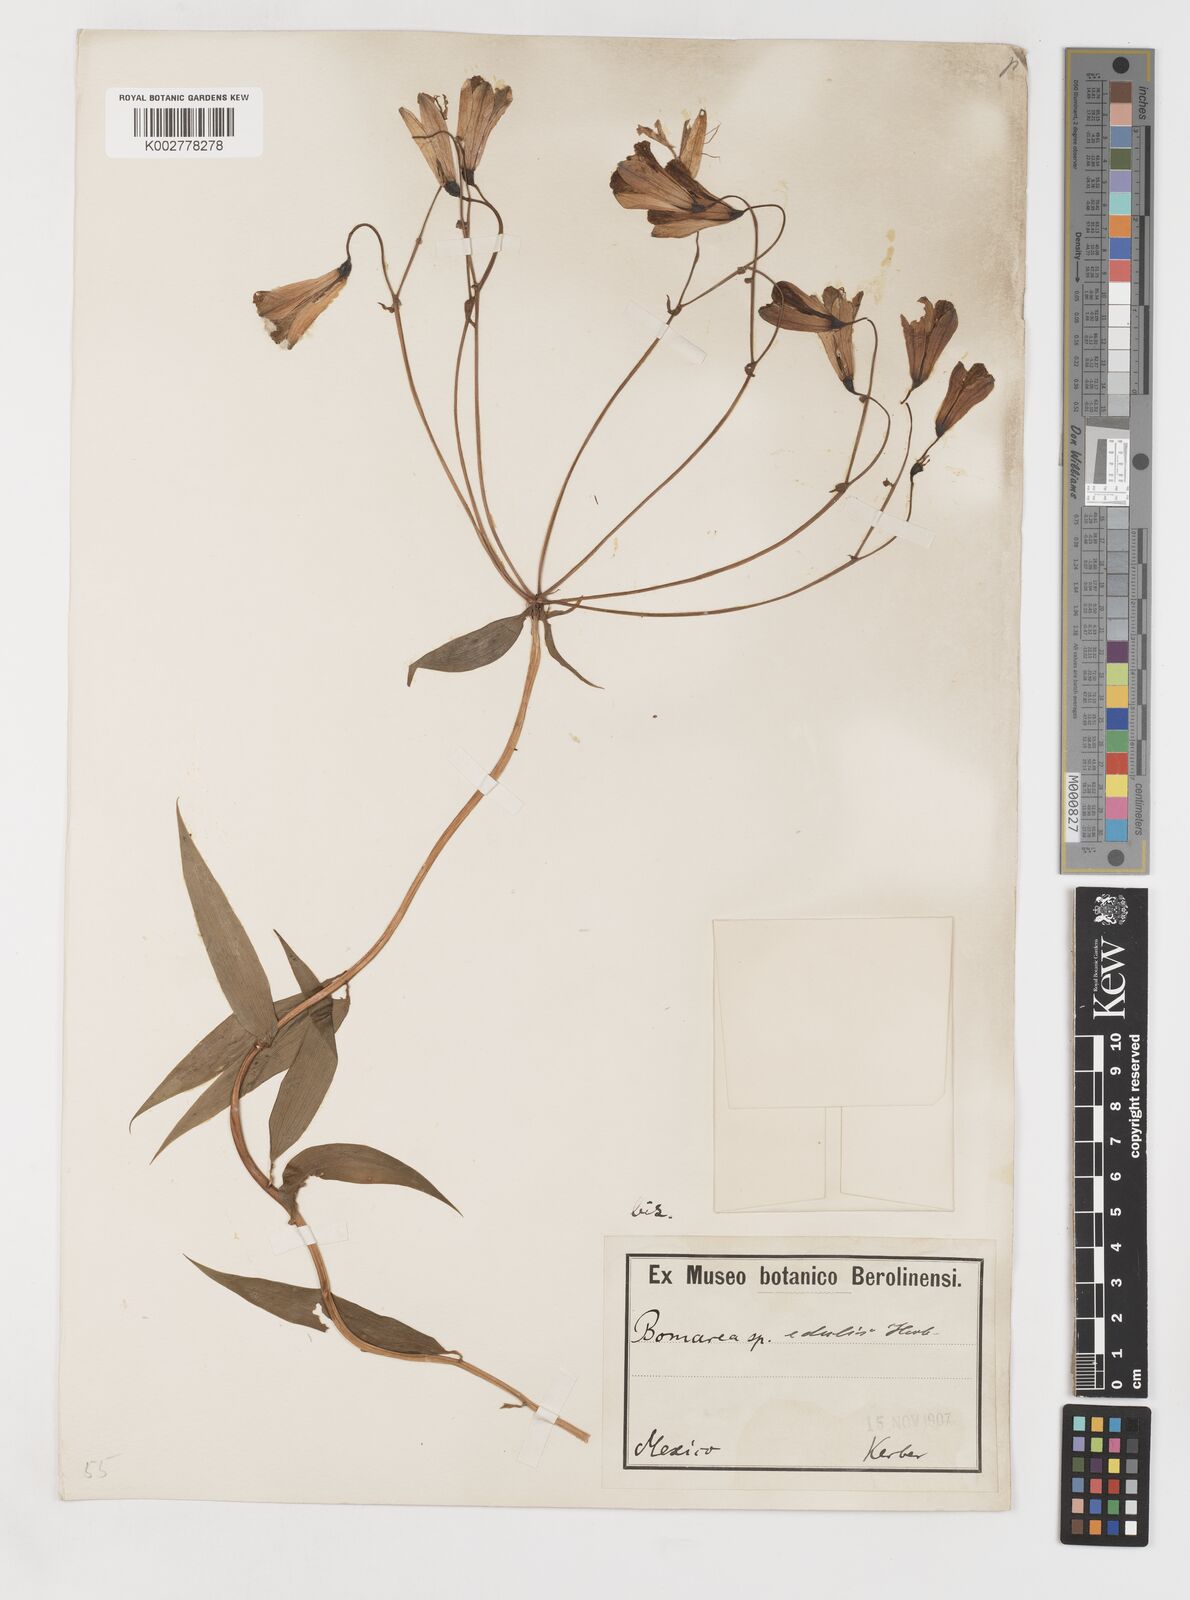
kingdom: Plantae
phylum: Tracheophyta
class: Liliopsida
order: Liliales
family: Alstroemeriaceae
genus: Bomarea
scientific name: Bomarea edulis
